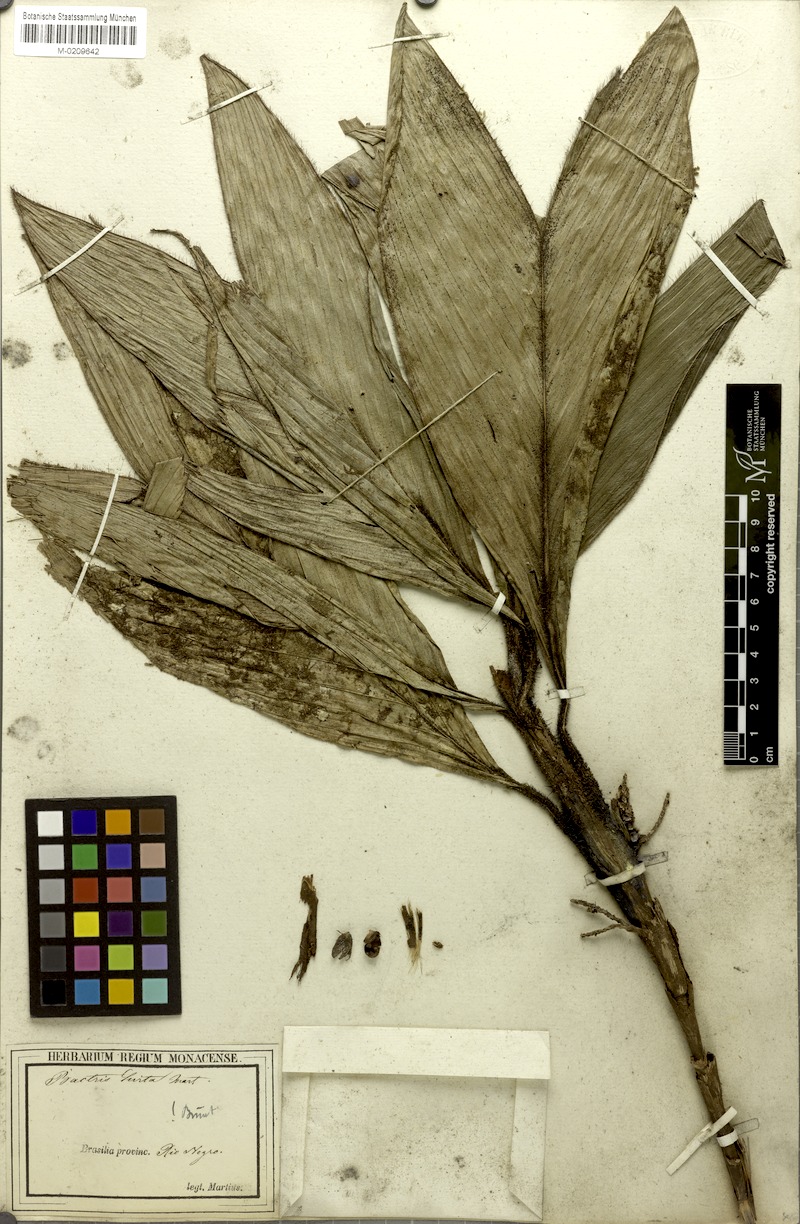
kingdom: Plantae
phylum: Tracheophyta
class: Liliopsida
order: Arecales
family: Arecaceae
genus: Bactris
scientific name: Bactris hirta
